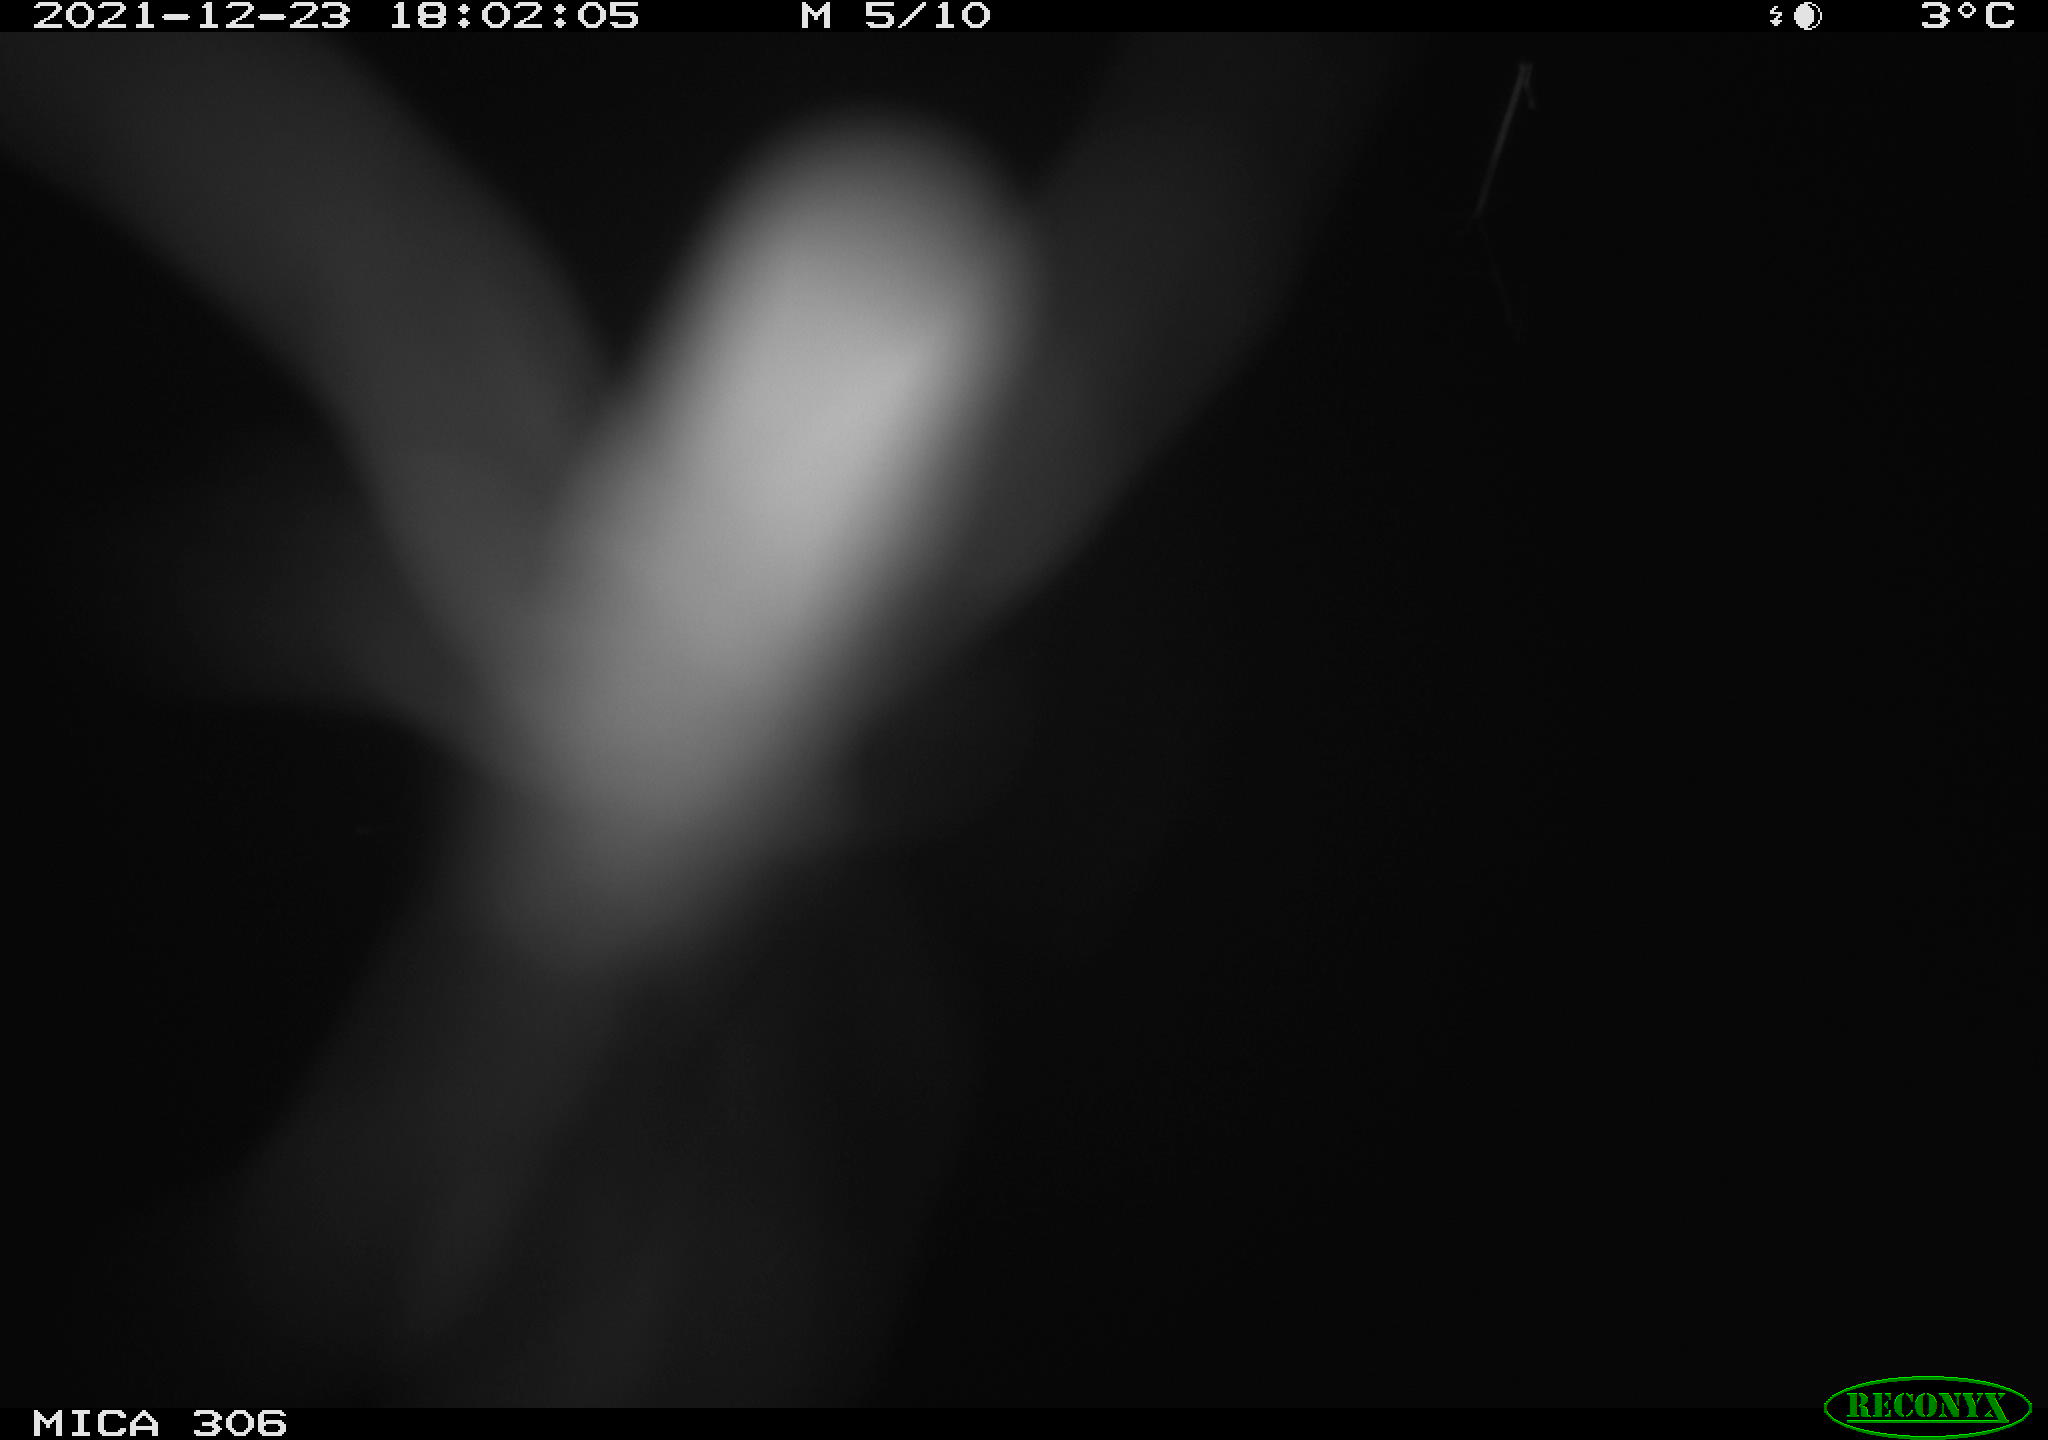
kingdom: Animalia
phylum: Chordata
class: Mammalia
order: Rodentia
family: Muridae
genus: Rattus
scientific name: Rattus norvegicus
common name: Brown rat
